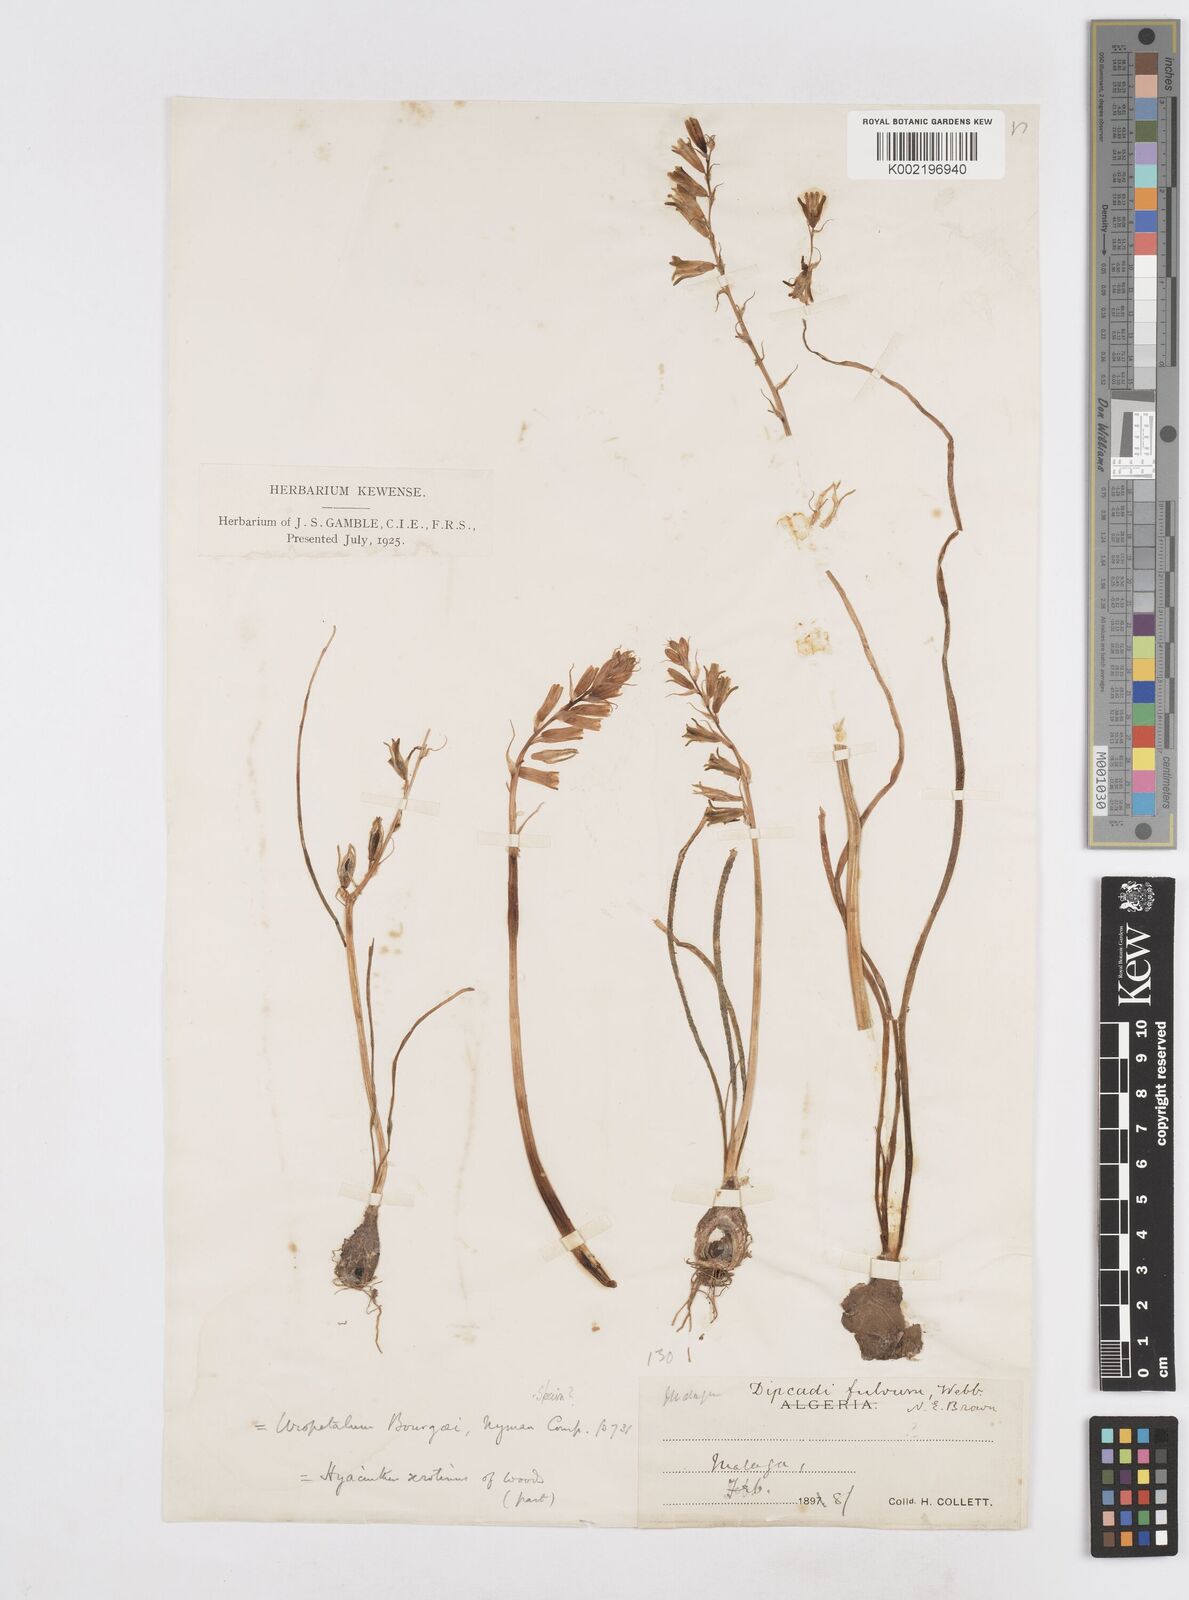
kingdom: Plantae
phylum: Tracheophyta
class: Liliopsida
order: Asparagales
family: Asparagaceae
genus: Dipcadi
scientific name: Dipcadi serotinum
